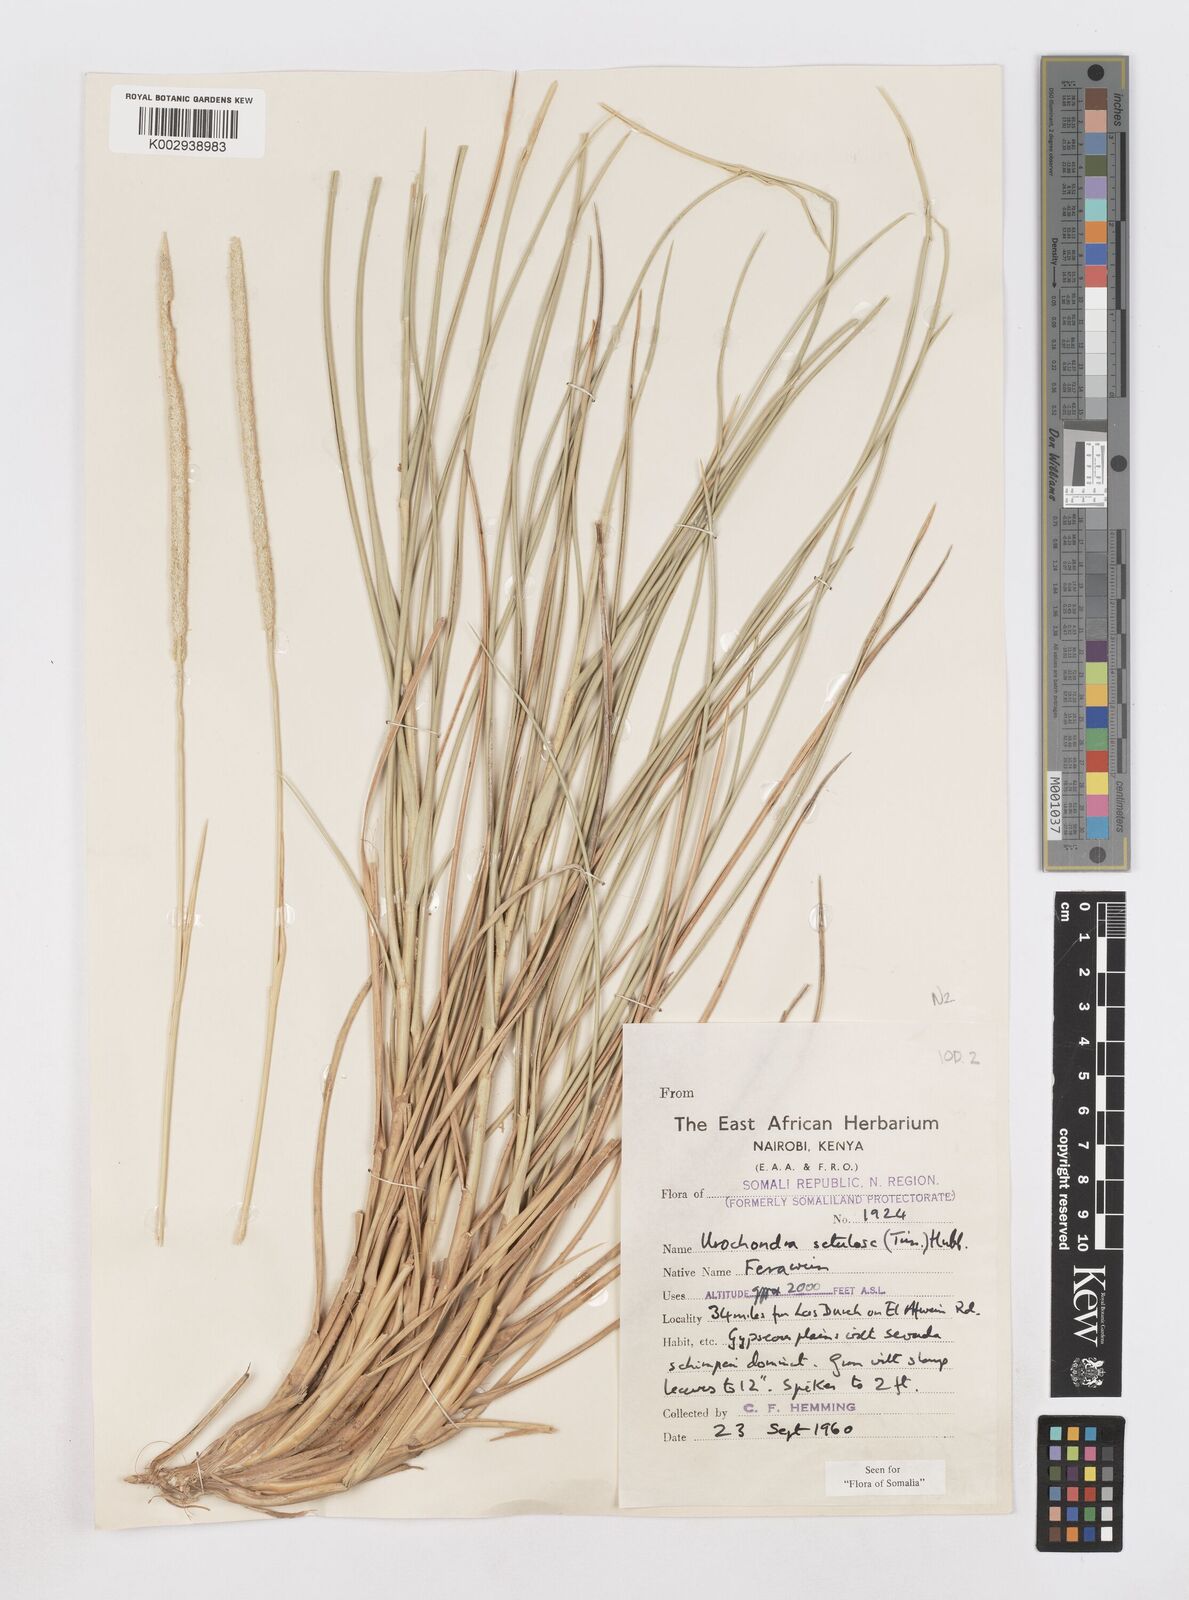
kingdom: Plantae
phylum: Tracheophyta
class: Liliopsida
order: Poales
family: Poaceae
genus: Urochondra
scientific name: Urochondra setulosa
